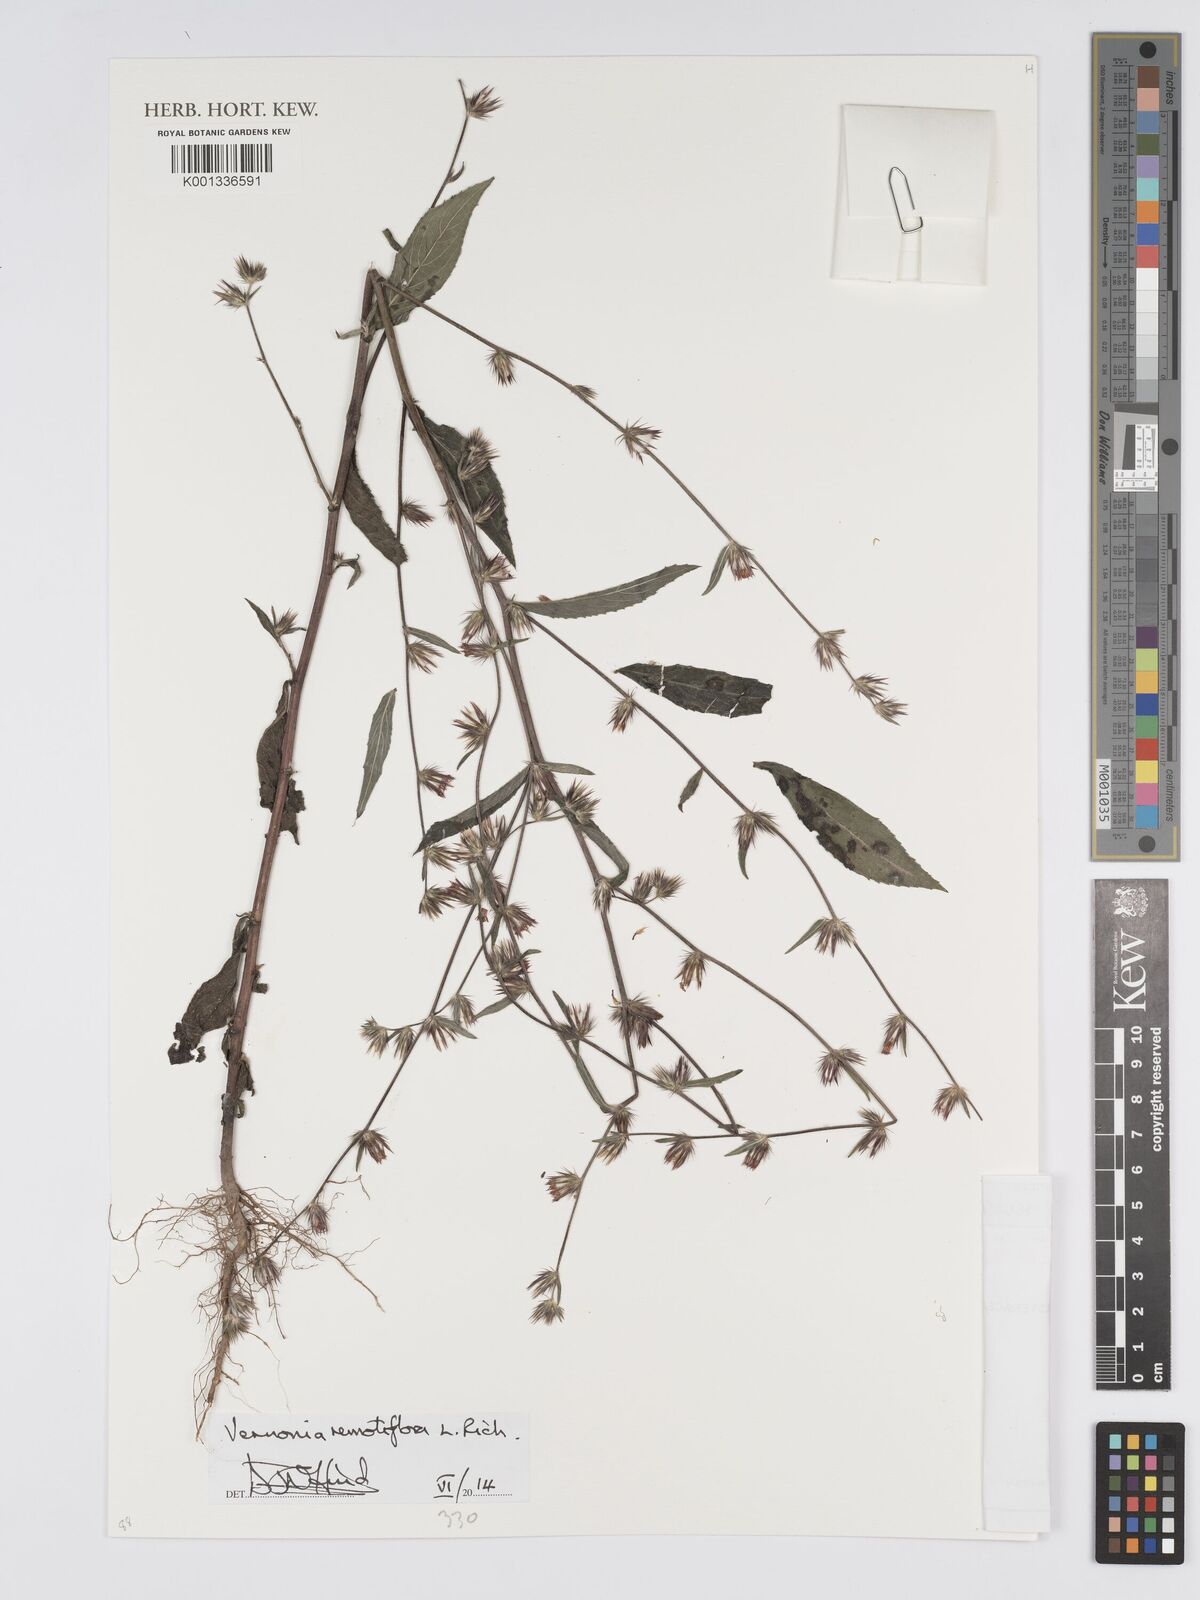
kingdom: Plantae
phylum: Tracheophyta
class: Magnoliopsida
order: Asterales
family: Asteraceae
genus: Lepidaploa
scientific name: Lepidaploa remotiflora
